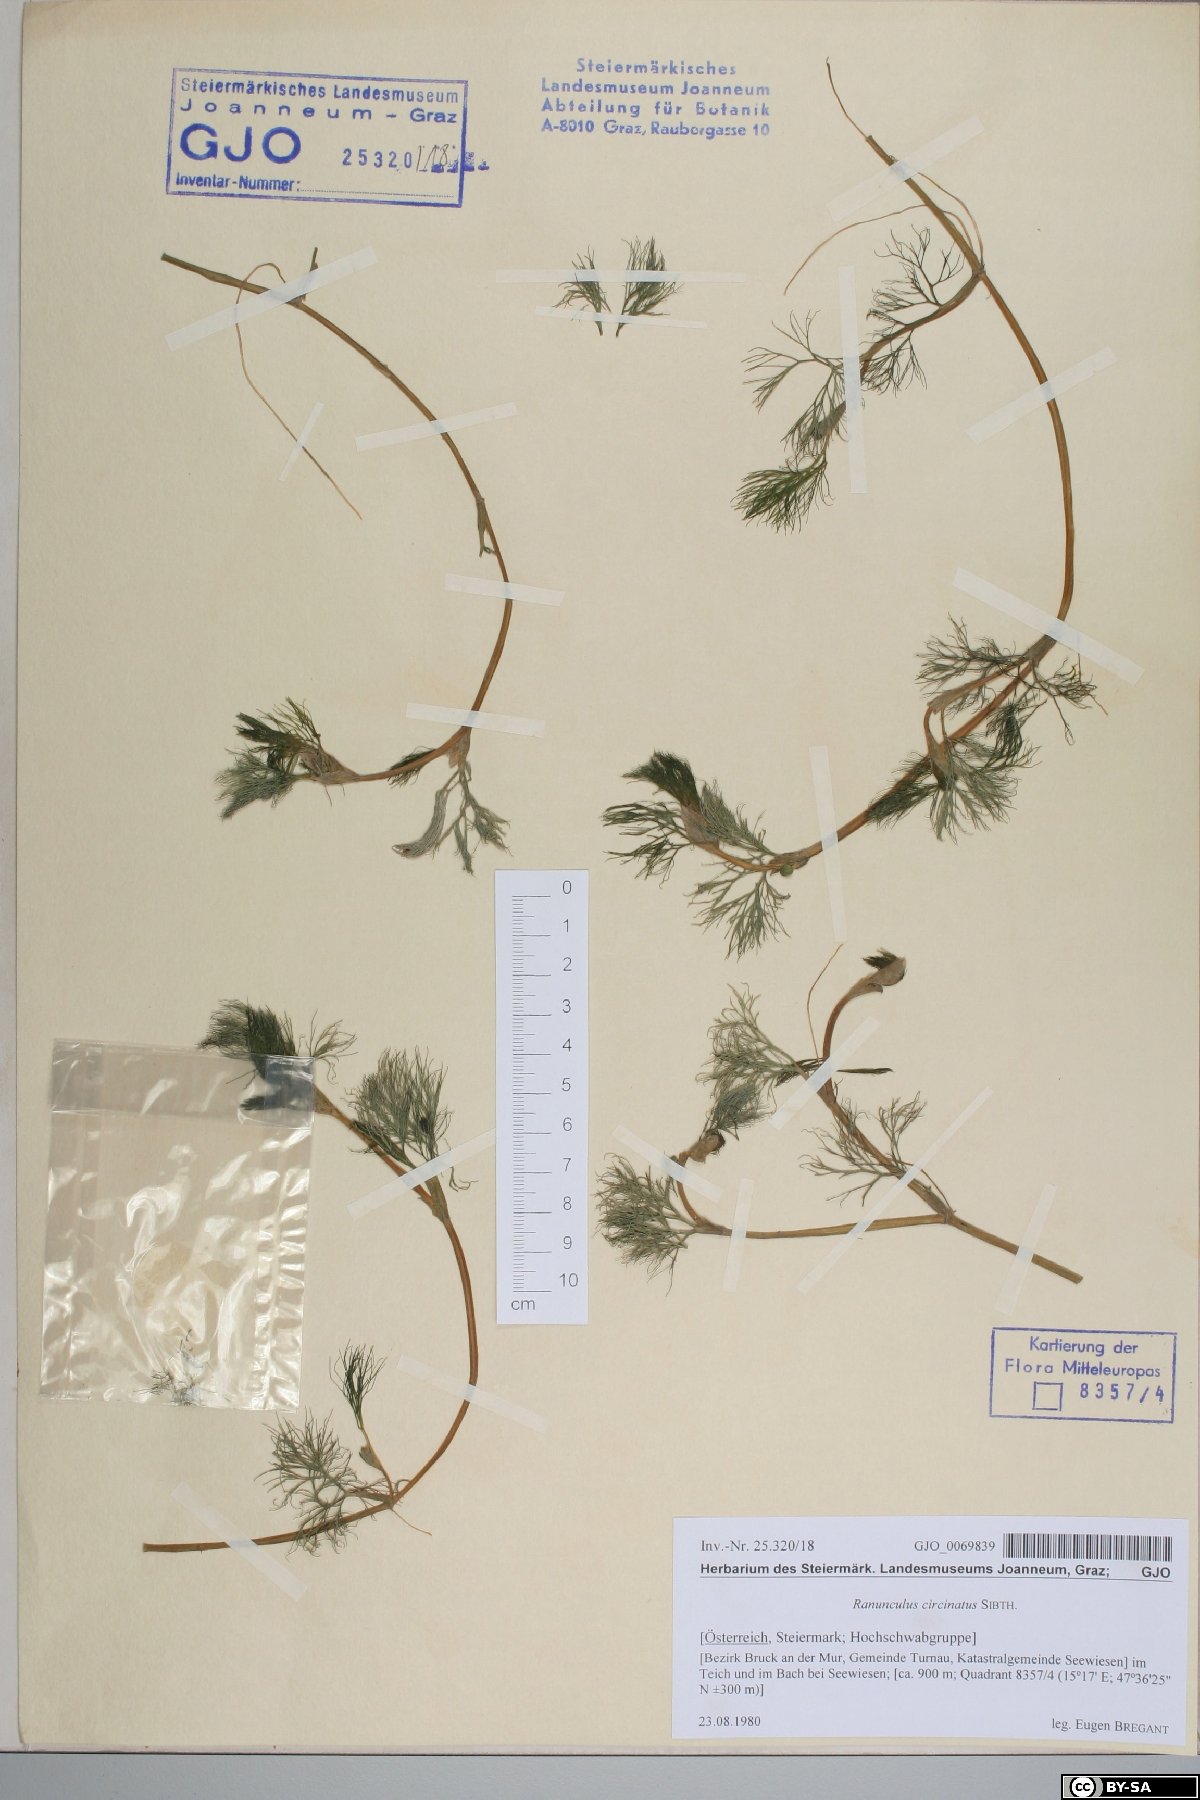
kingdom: Plantae
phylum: Tracheophyta
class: Magnoliopsida
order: Ranunculales
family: Ranunculaceae
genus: Ranunculus
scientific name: Ranunculus circinatus
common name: Fan-leaved water-crowfoot
